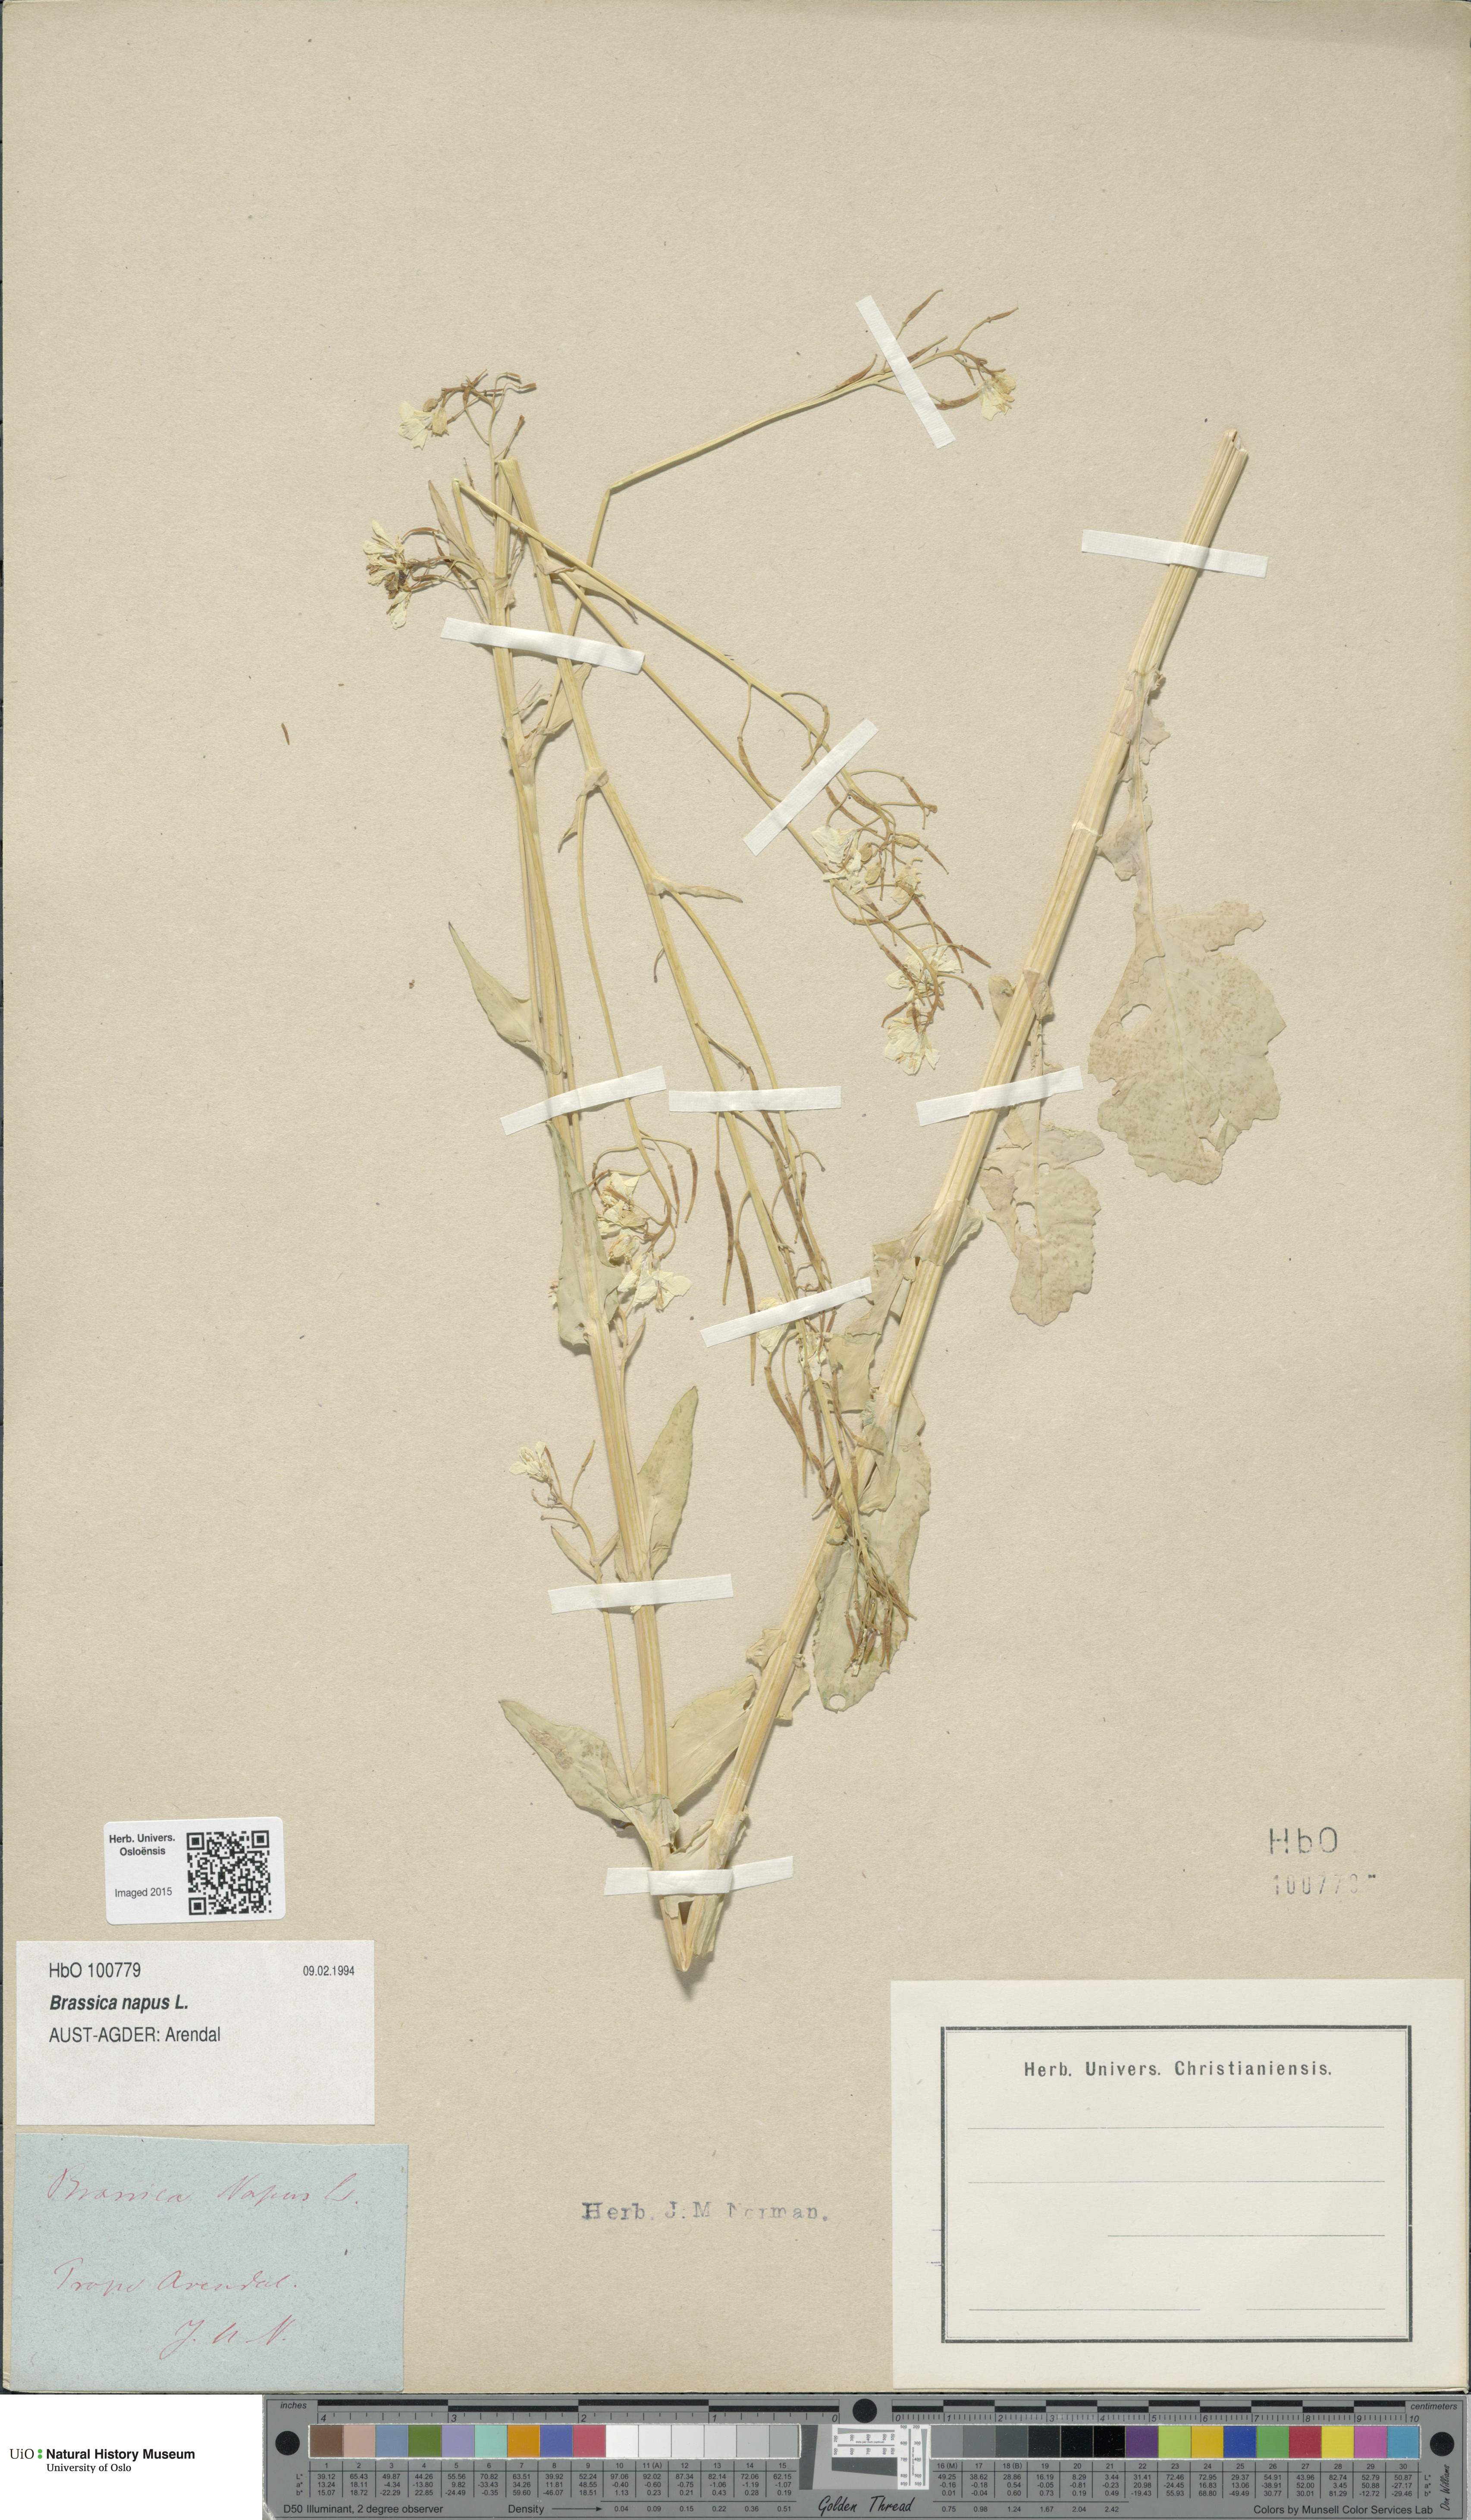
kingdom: Plantae
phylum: Tracheophyta
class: Magnoliopsida
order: Brassicales
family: Brassicaceae
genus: Brassica
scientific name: Brassica napus
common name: Rape
